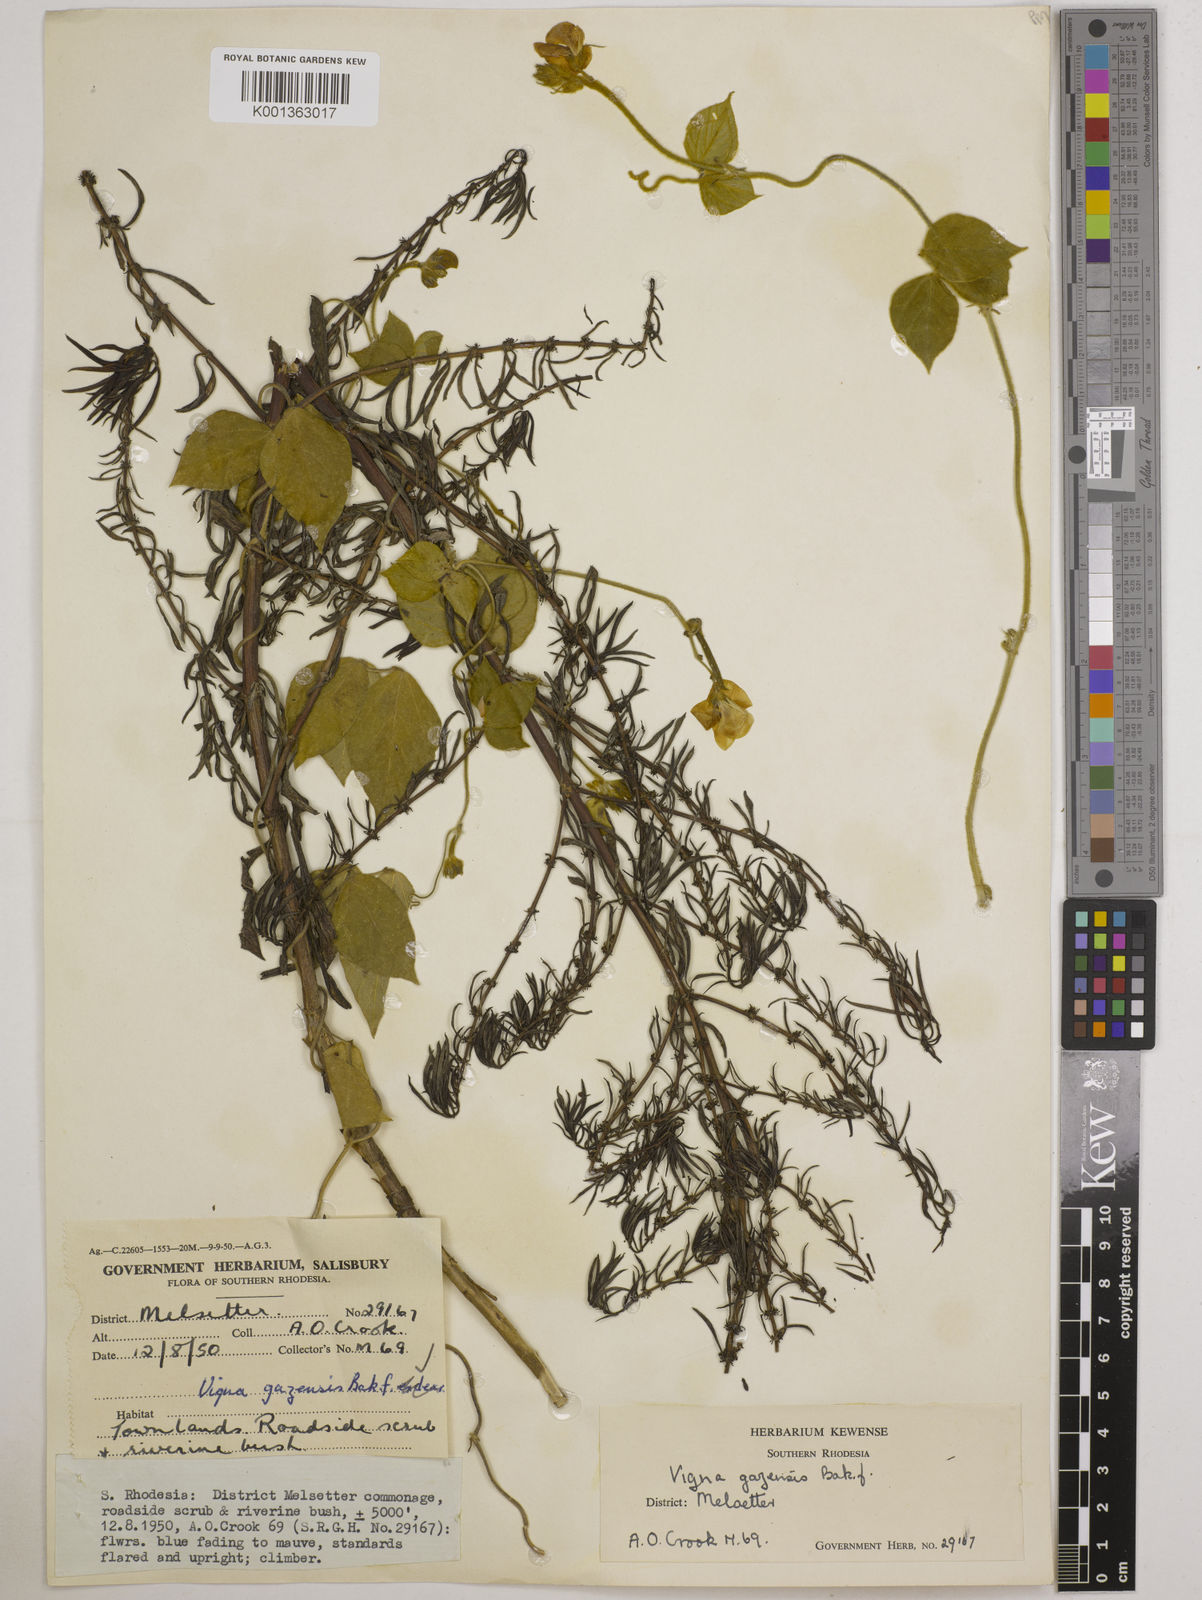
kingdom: Plantae
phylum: Tracheophyta
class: Magnoliopsida
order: Fabales
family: Fabaceae
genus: Vigna
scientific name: Vigna gazensis
